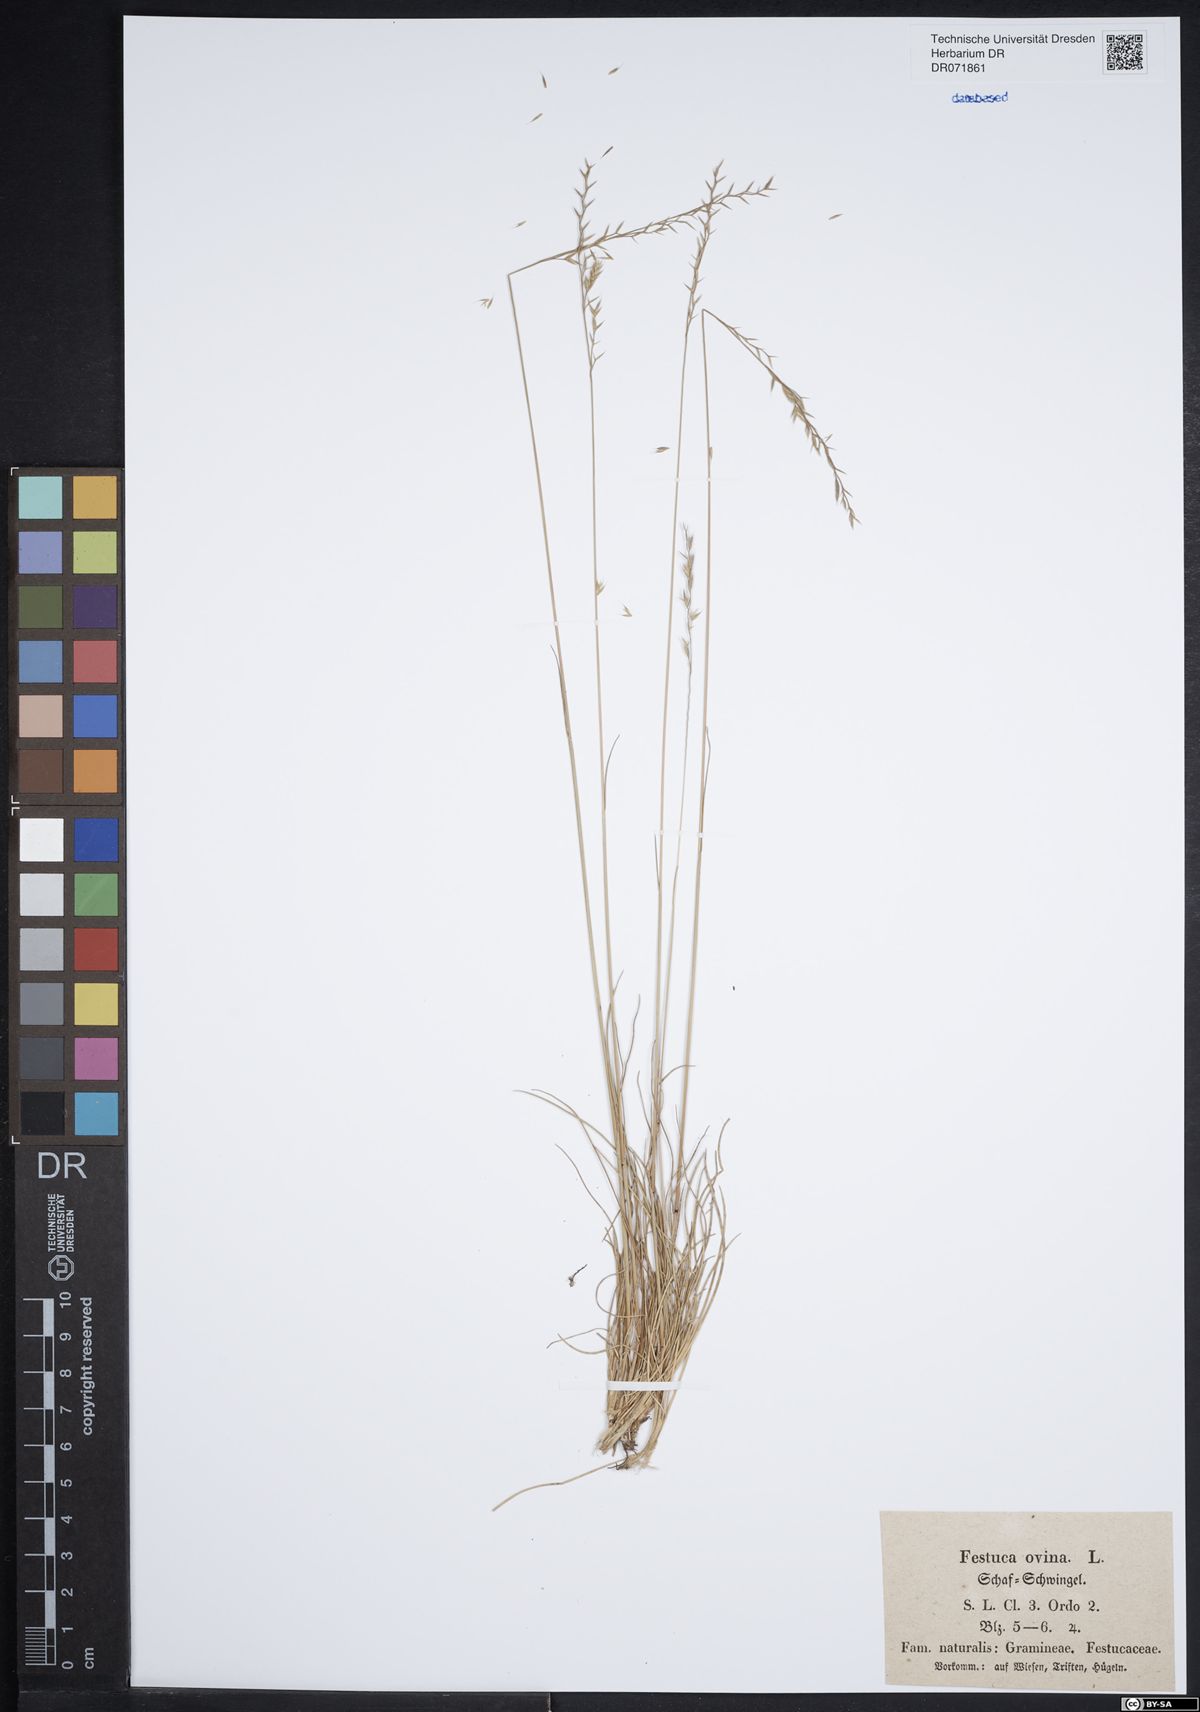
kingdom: Plantae
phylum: Tracheophyta
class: Liliopsida
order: Poales
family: Poaceae
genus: Festuca
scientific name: Festuca ovina
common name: Sheep fescue
